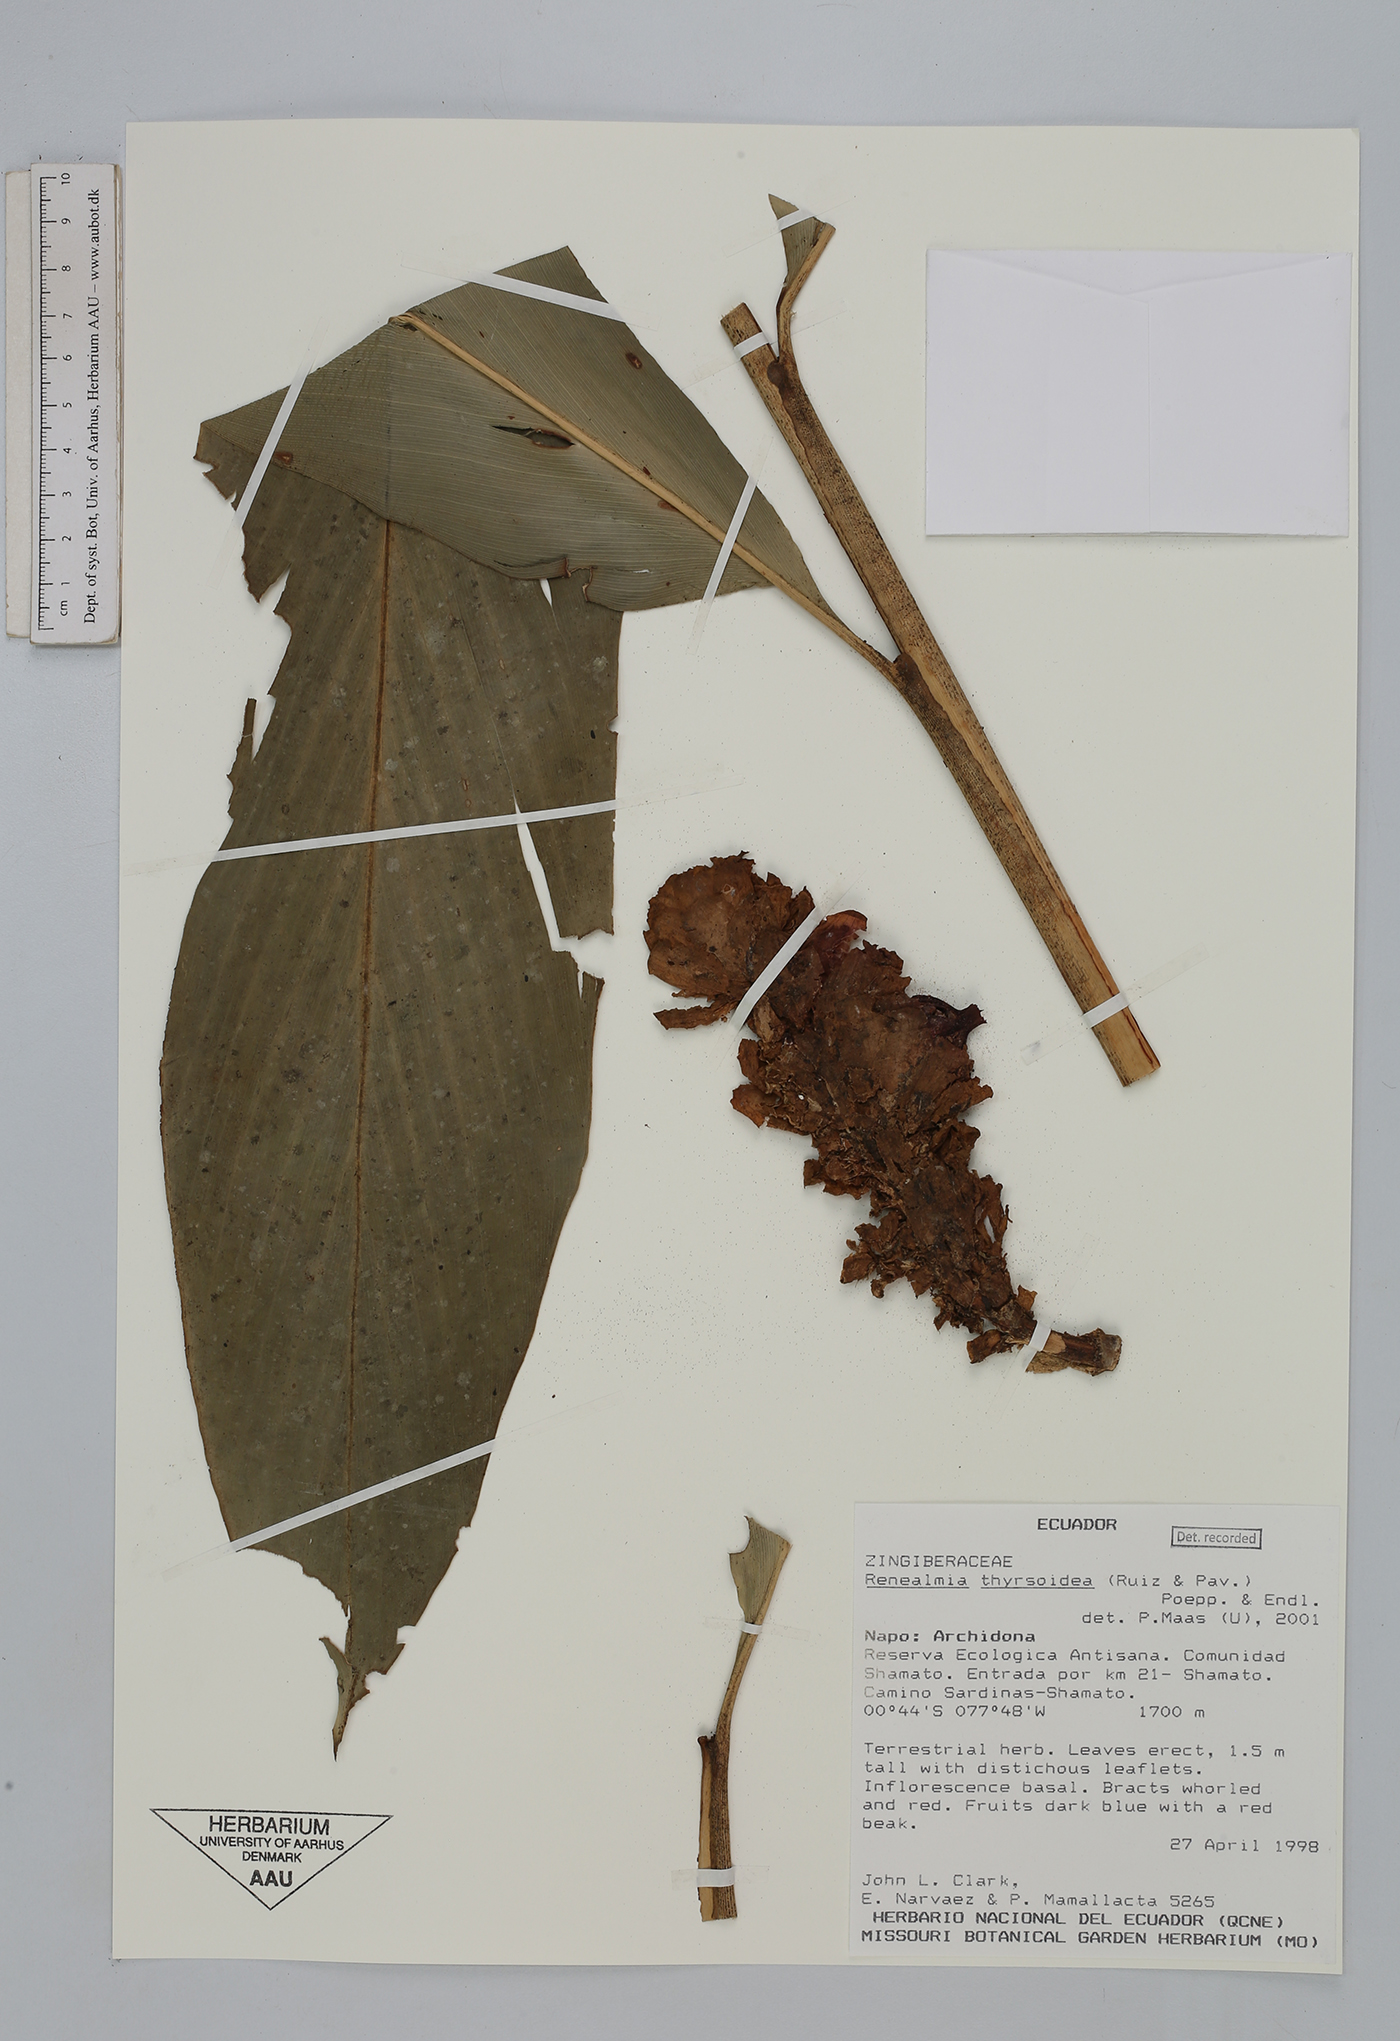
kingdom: Plantae
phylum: Tracheophyta
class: Liliopsida
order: Zingiberales
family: Zingiberaceae
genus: Renealmia
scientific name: Renealmia thyrsoidea
